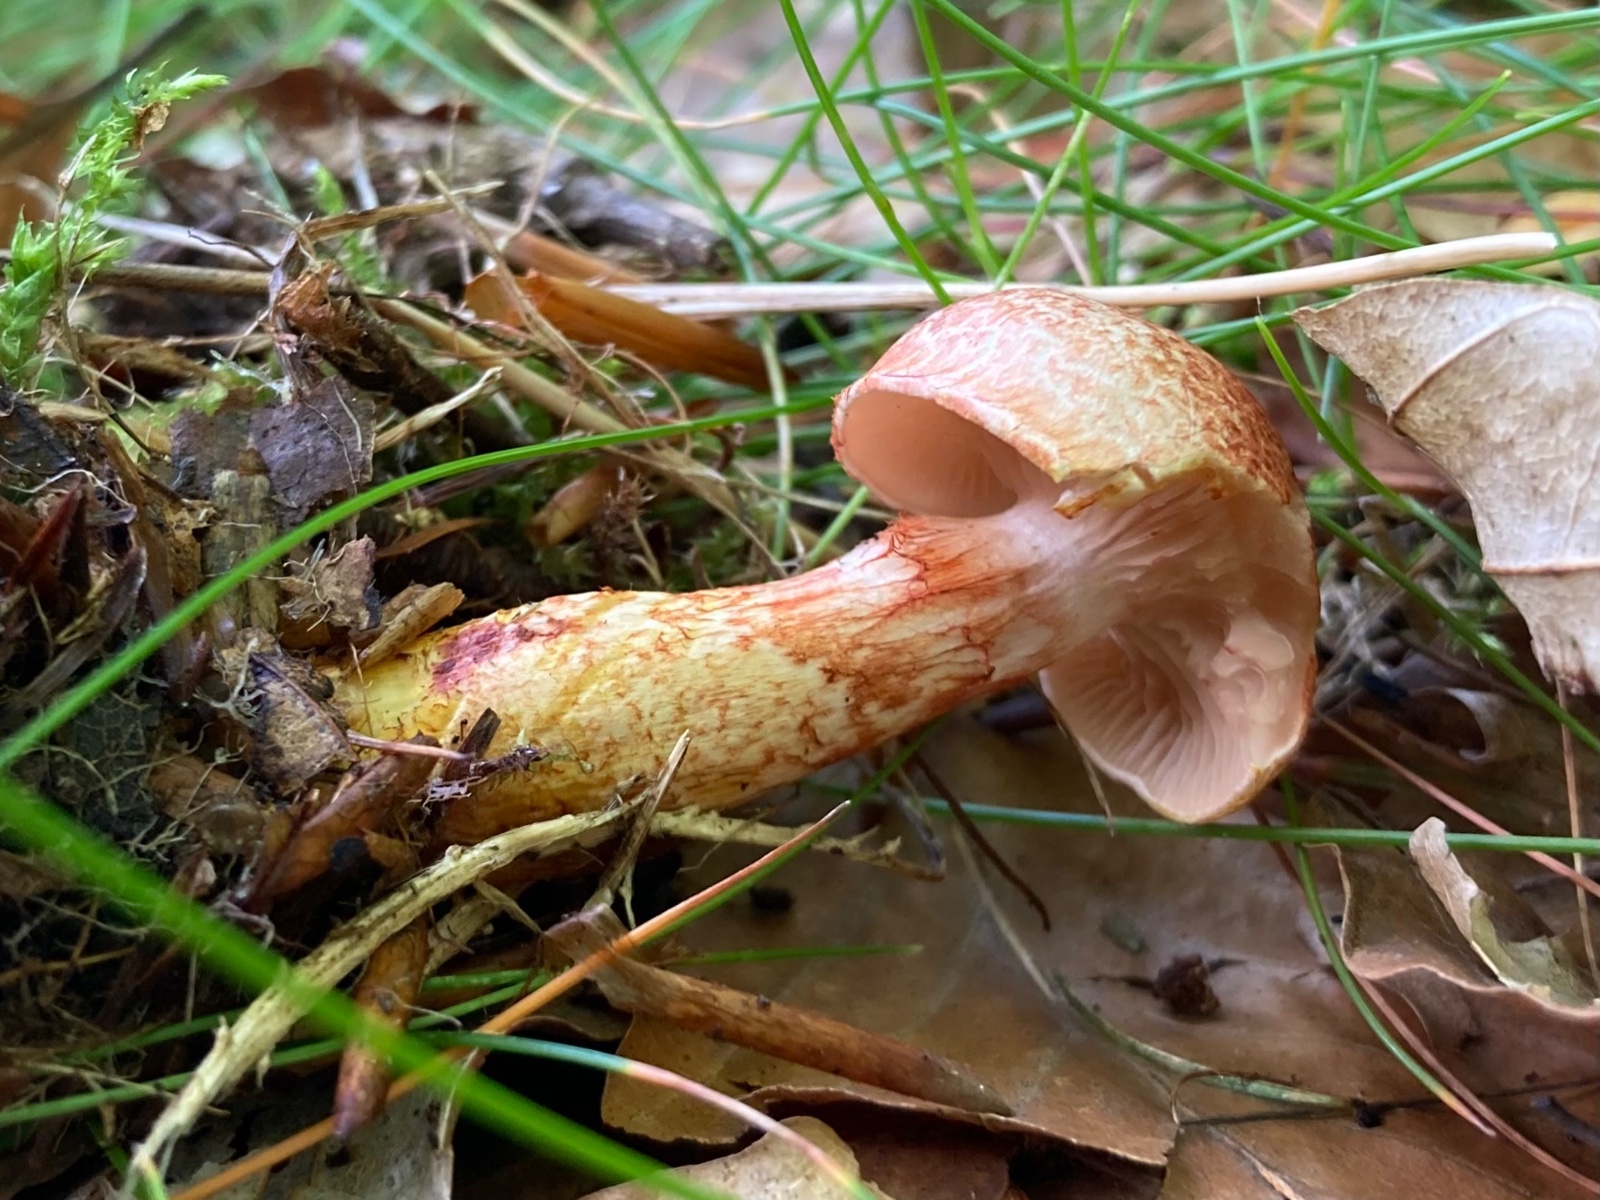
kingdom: Fungi
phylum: Basidiomycota
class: Agaricomycetes
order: Agaricales
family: Cortinariaceae
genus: Cortinarius
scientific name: Cortinarius bolaris
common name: cinnoberskællet slørhat
